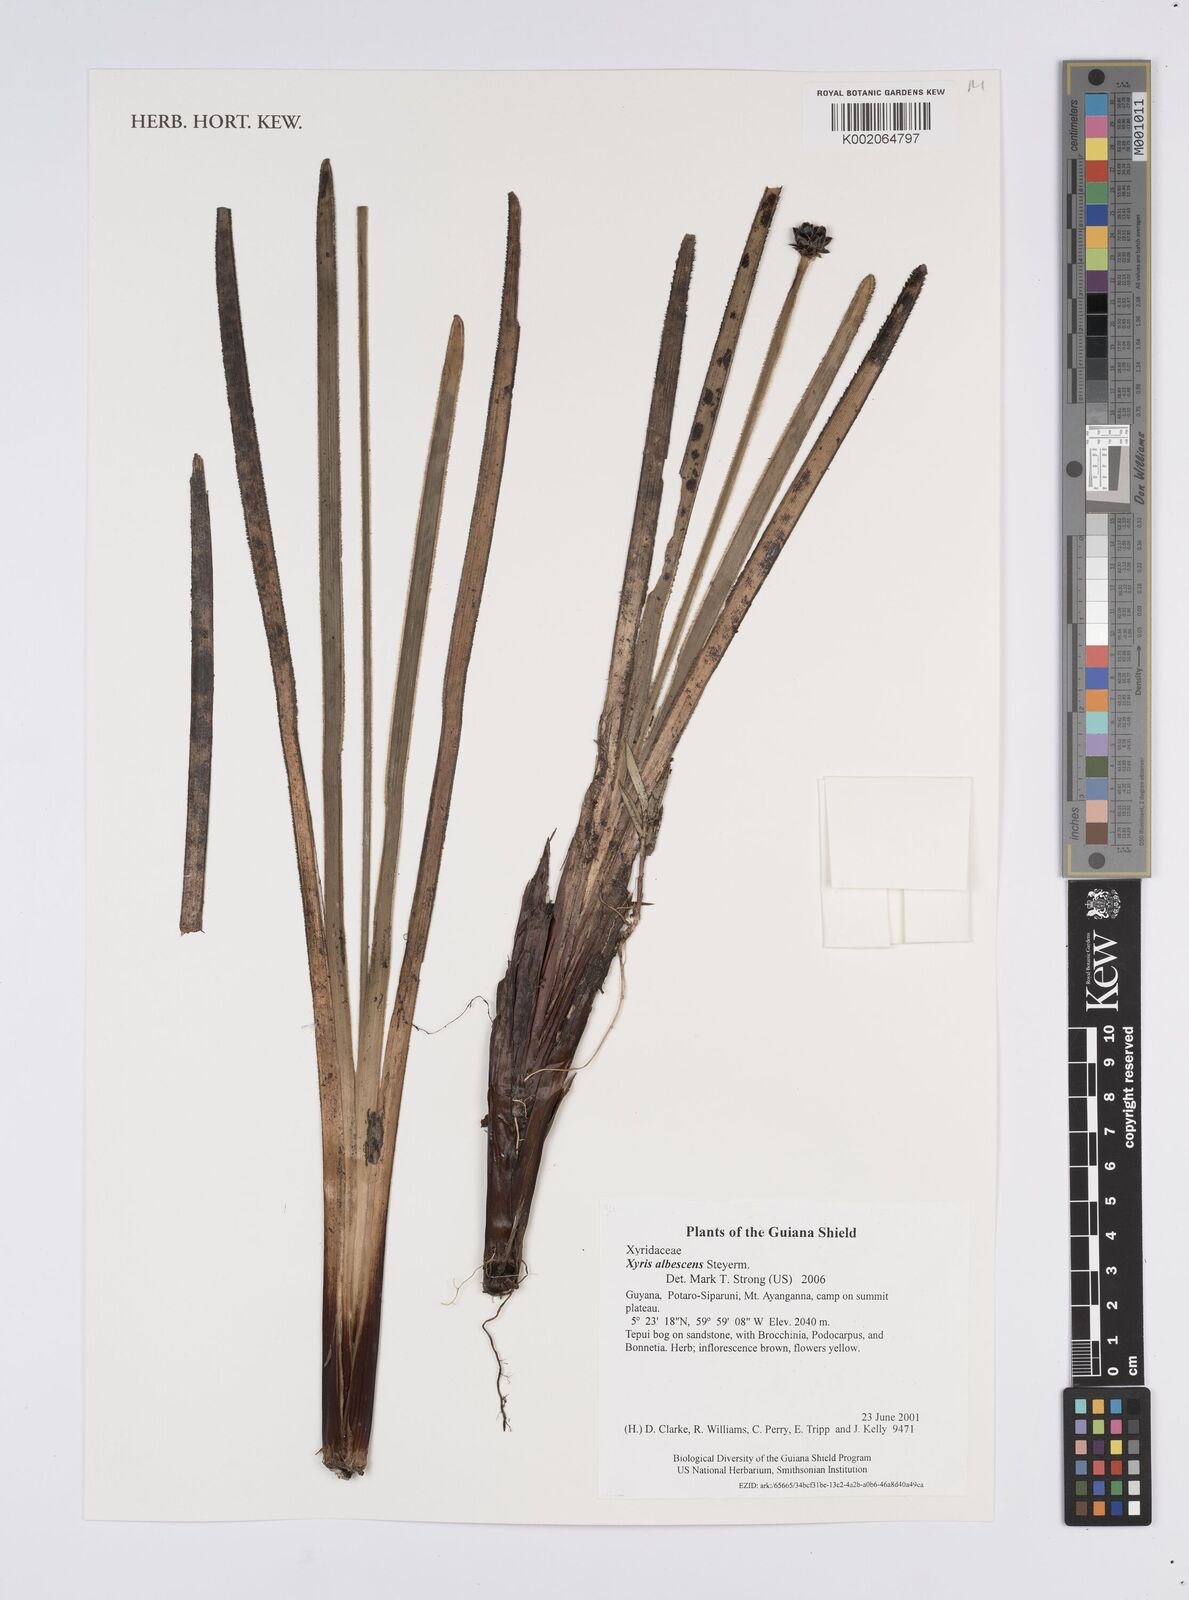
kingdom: Plantae
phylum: Tracheophyta
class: Liliopsida
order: Poales
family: Xyridaceae
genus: Xyris
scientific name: Xyris albescens
